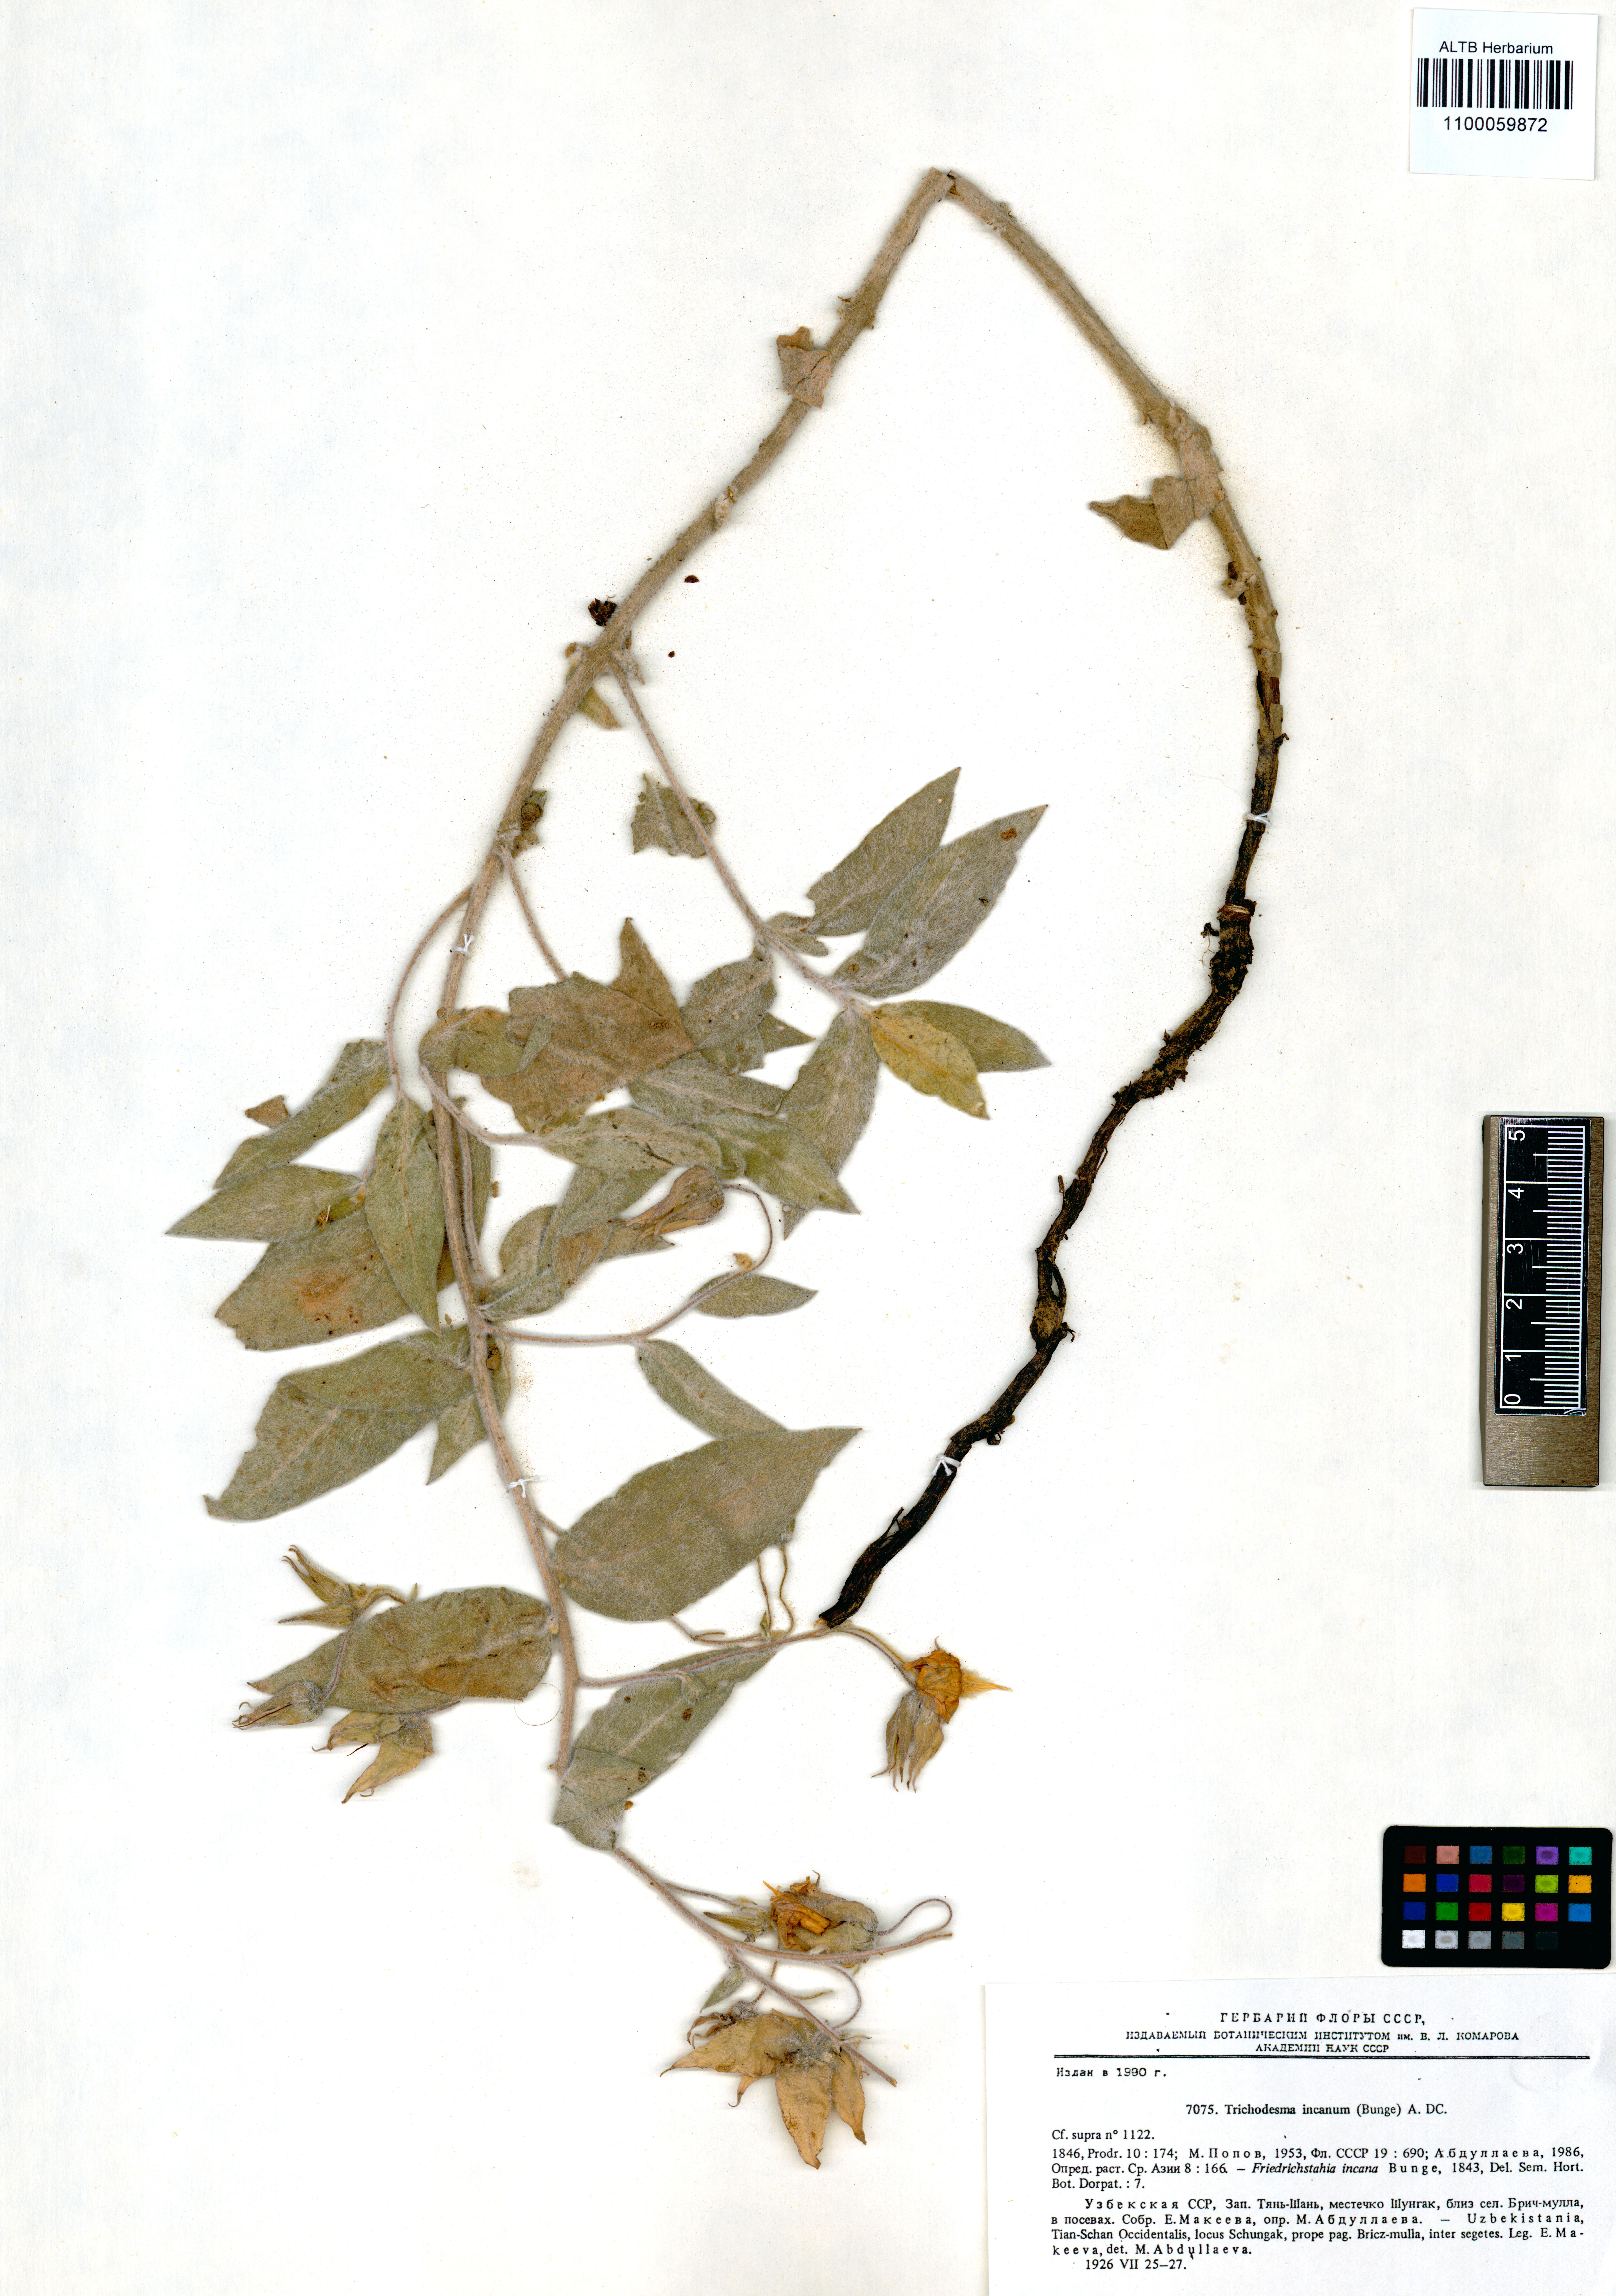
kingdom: Plantae
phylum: Tracheophyta
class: Magnoliopsida
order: Boraginales
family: Boraginaceae
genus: Trichodesma
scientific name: Trichodesma incanum
